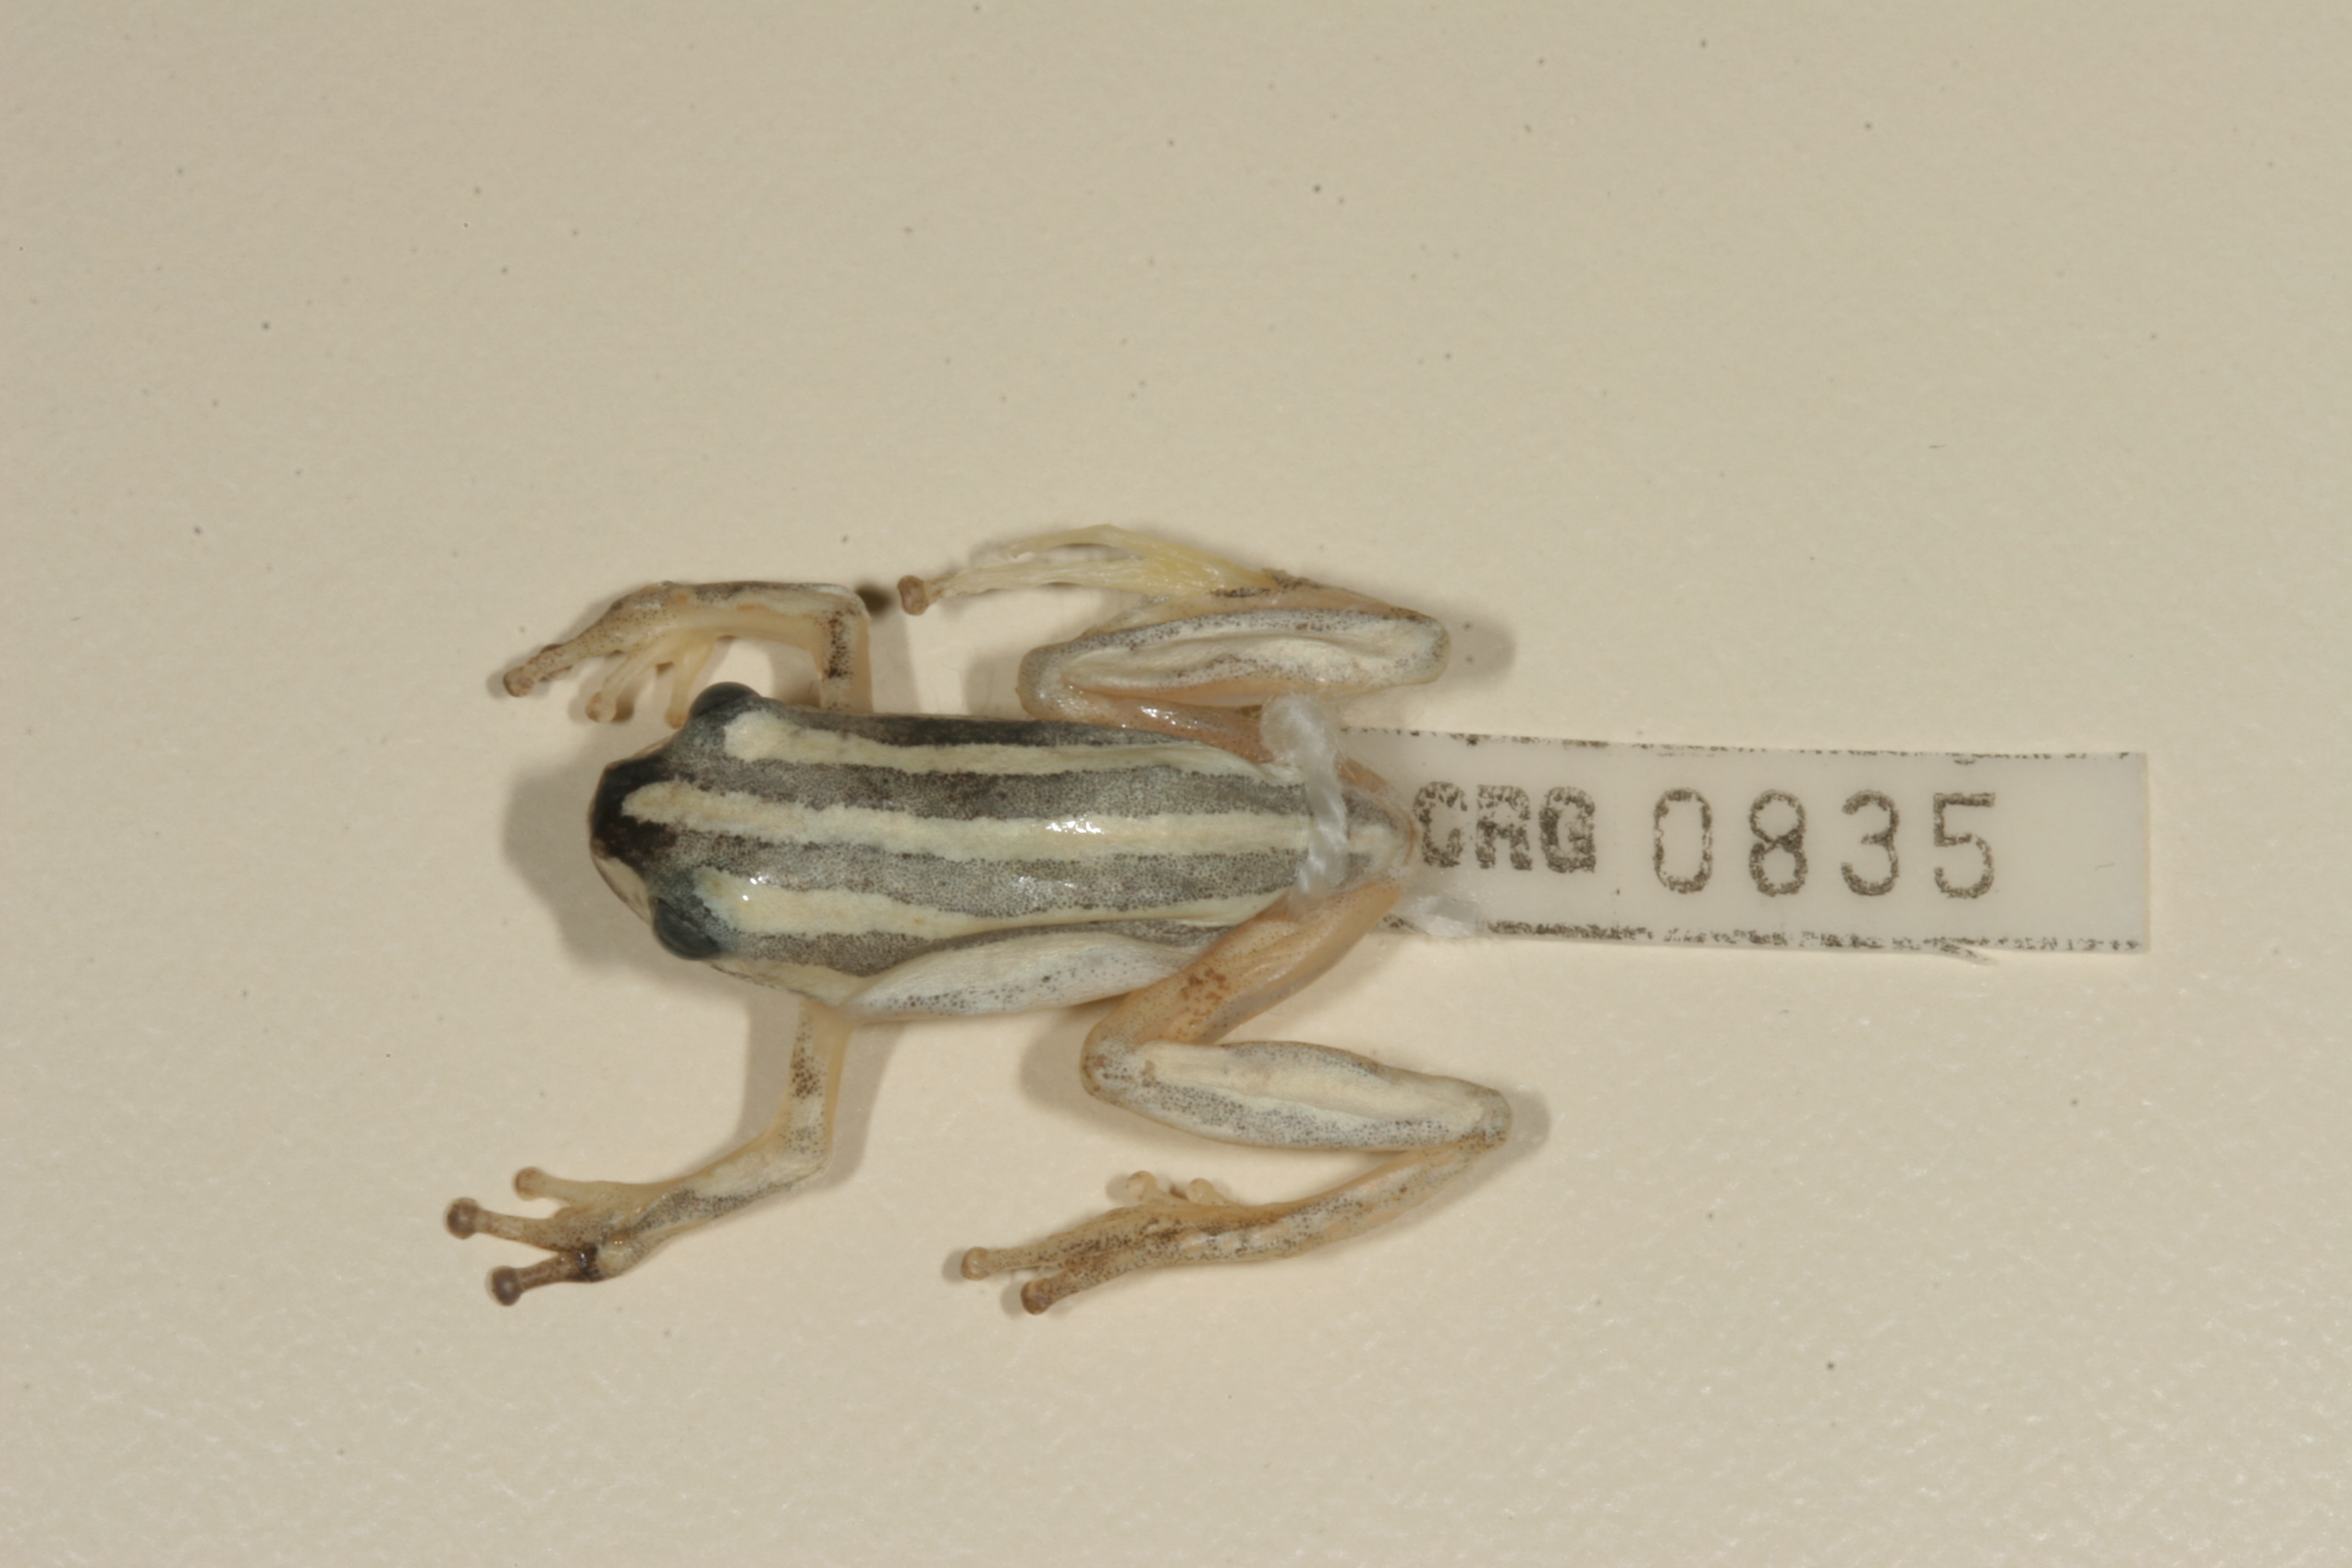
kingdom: Animalia
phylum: Chordata
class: Amphibia
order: Anura
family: Hyperoliidae
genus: Hyperolius
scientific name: Hyperolius marmoratus
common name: Painted reed frog
